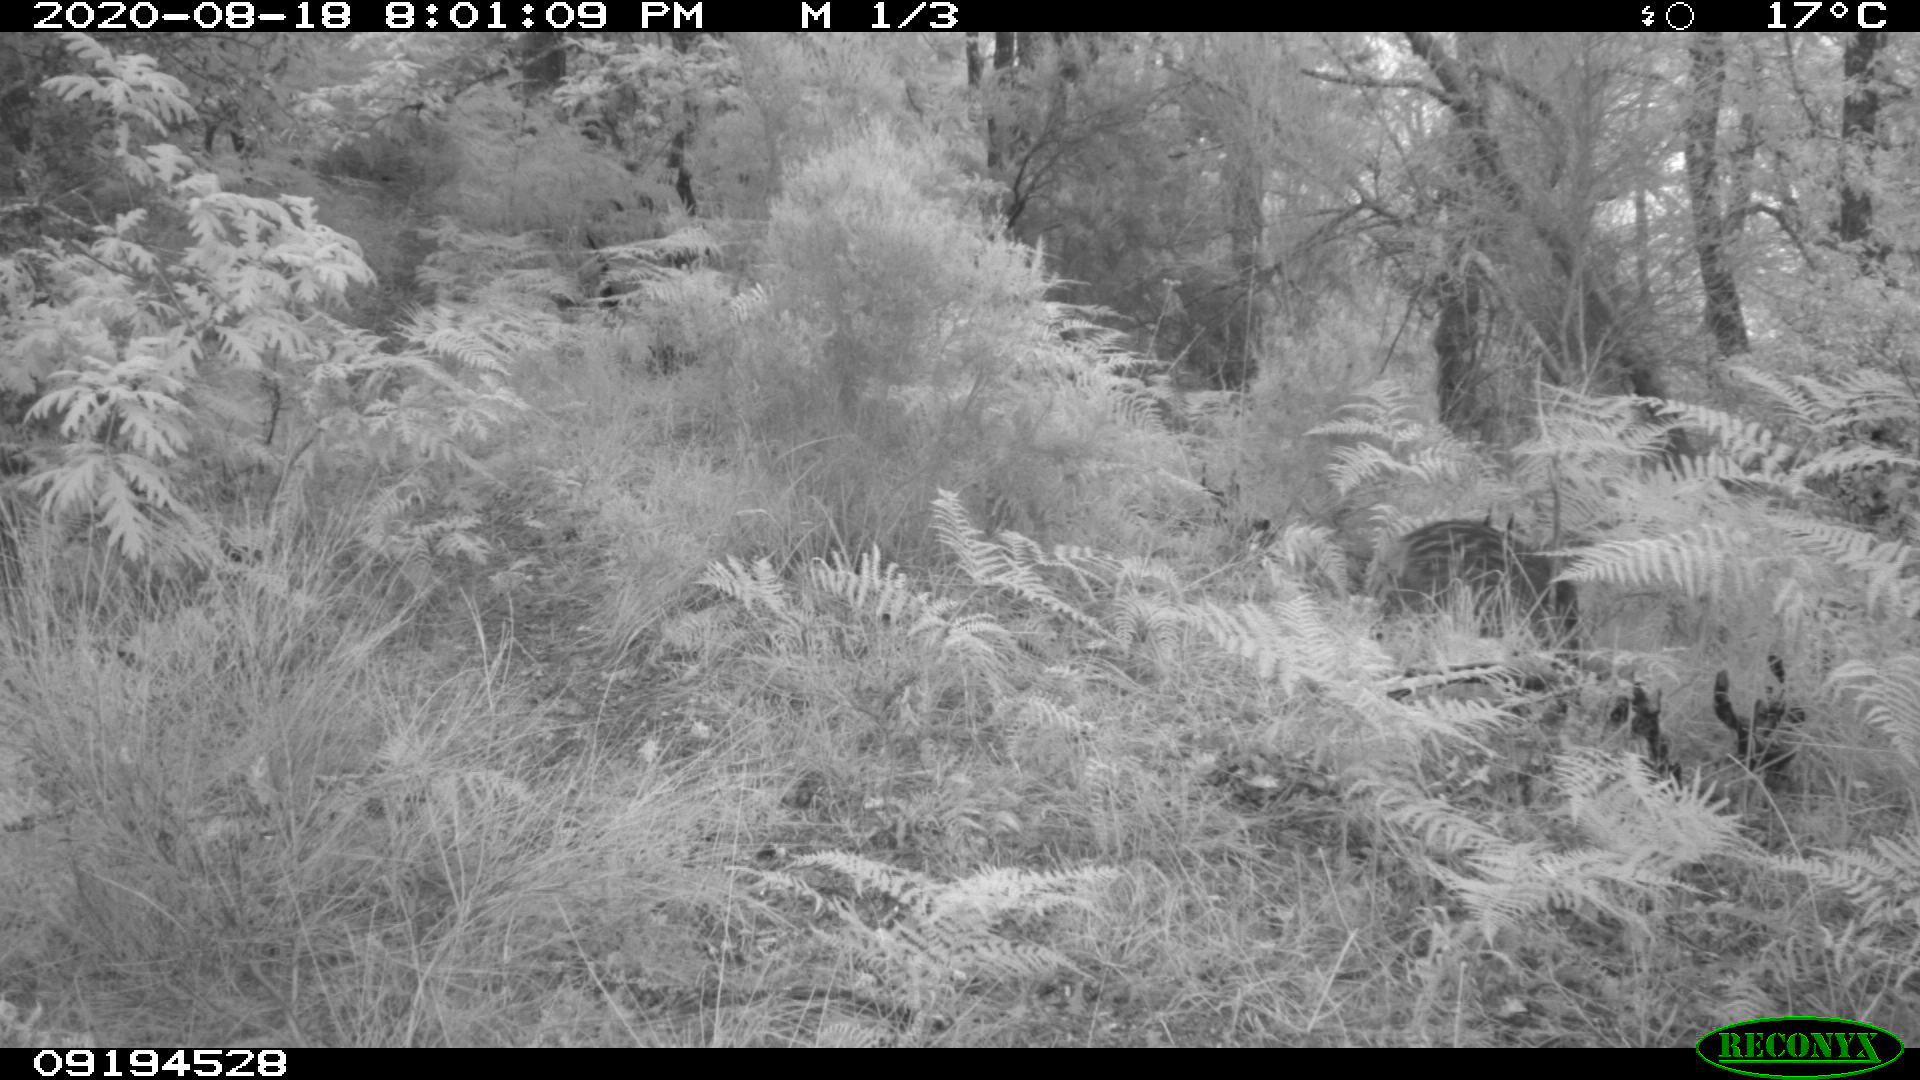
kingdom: Animalia
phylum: Chordata
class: Mammalia
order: Artiodactyla
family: Suidae
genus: Sus
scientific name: Sus scrofa
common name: Wild boar
